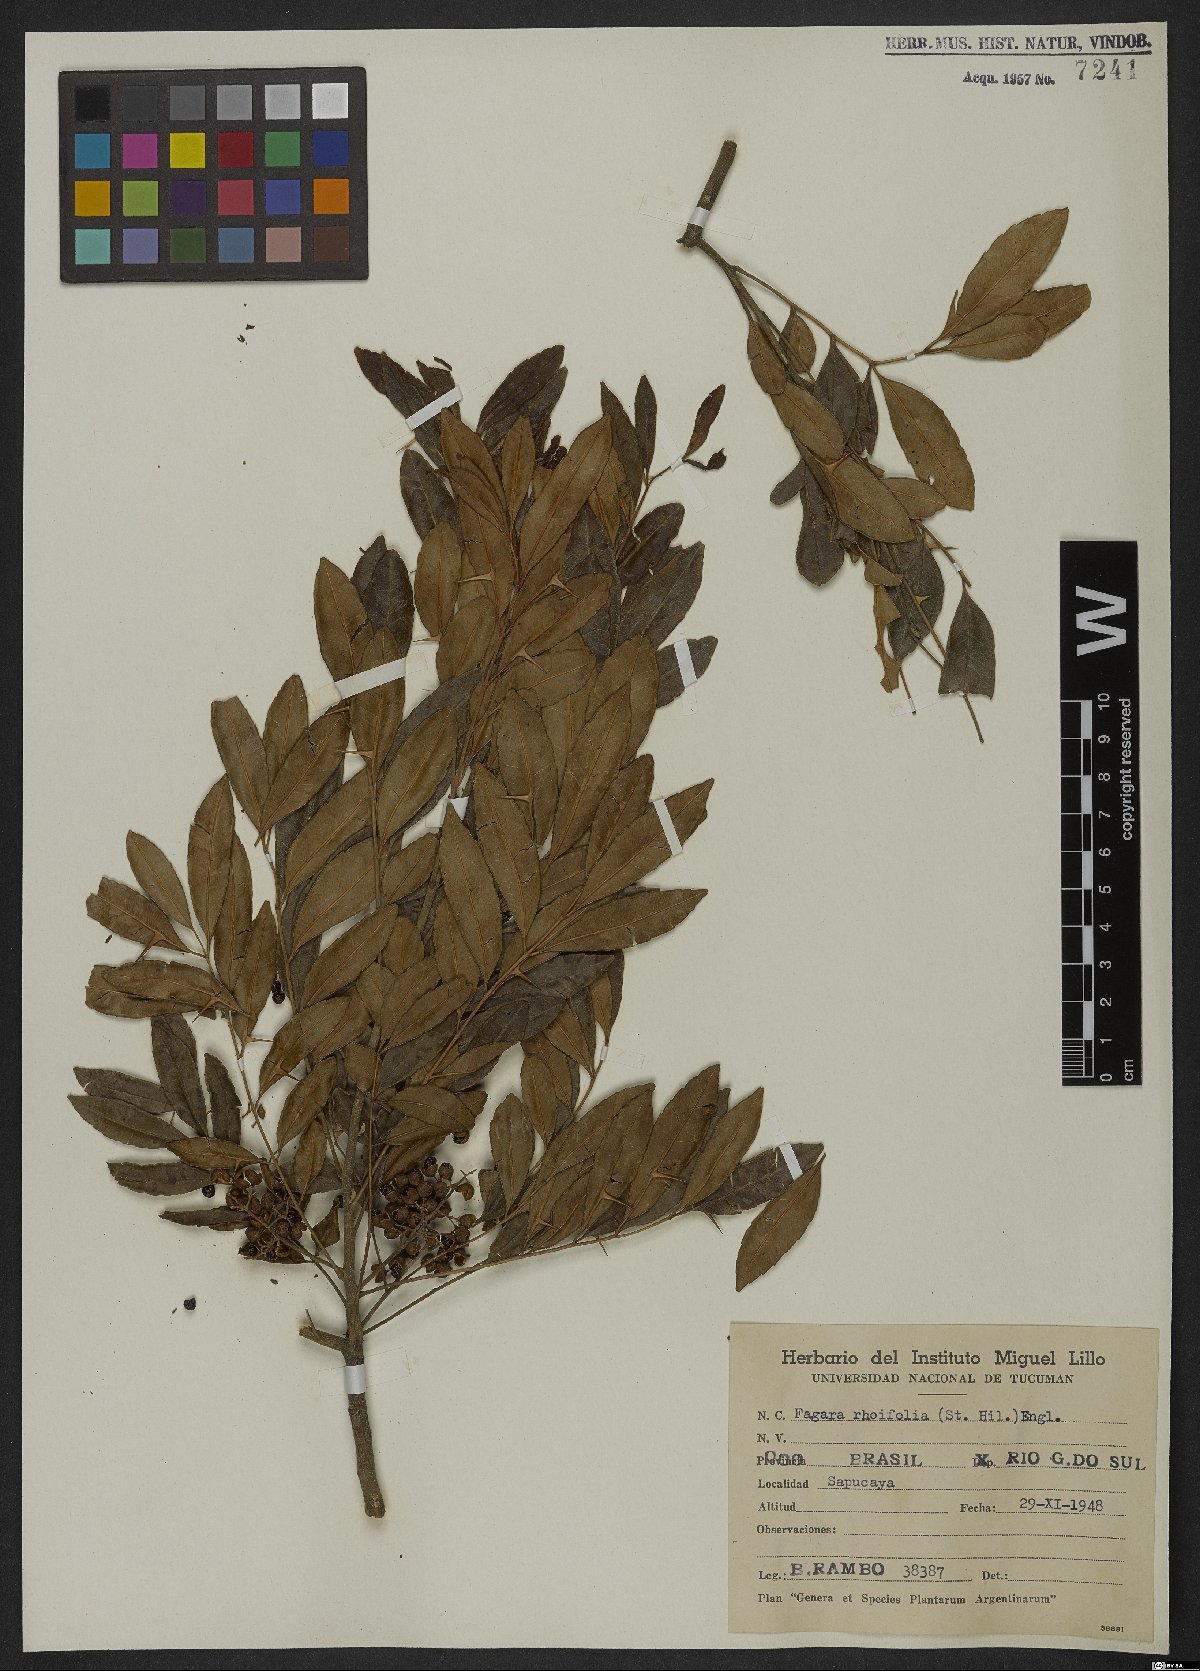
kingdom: Plantae
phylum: Tracheophyta
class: Magnoliopsida
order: Sapindales
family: Rutaceae
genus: Zanthoxylum
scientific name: Zanthoxylum rhoifolium
